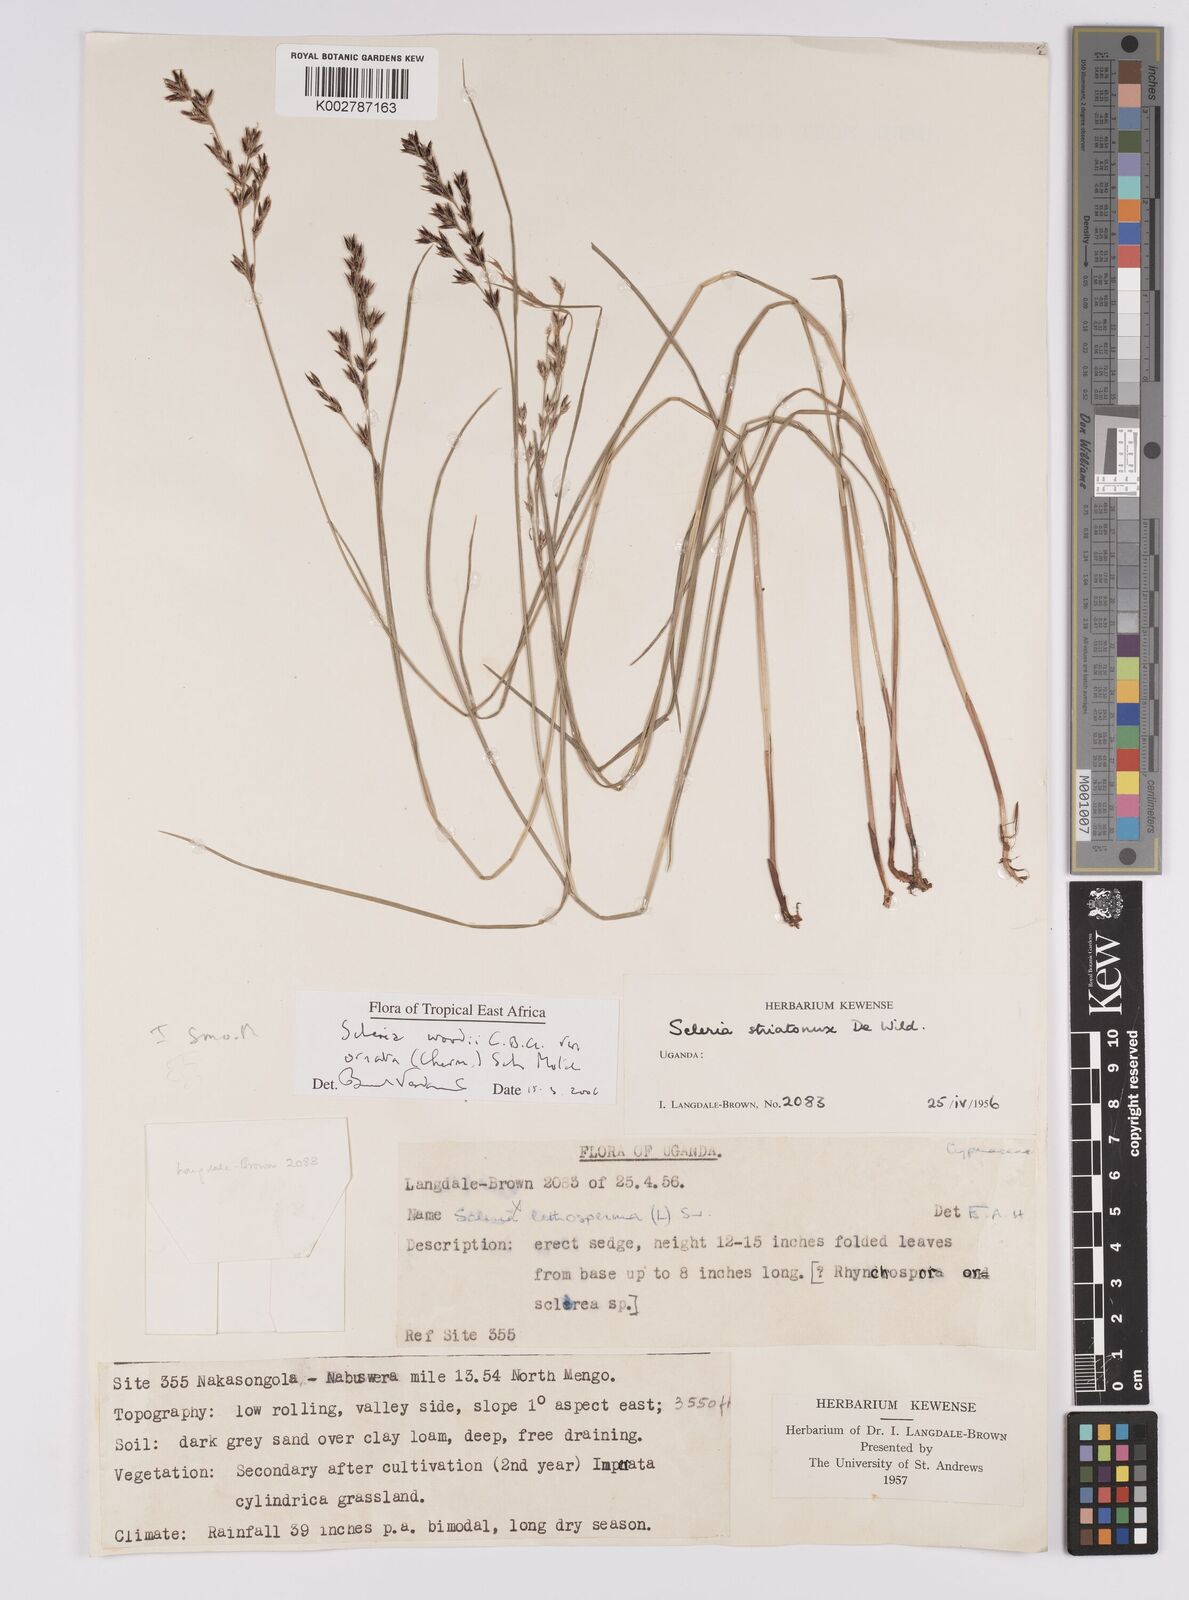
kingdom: Plantae
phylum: Tracheophyta
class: Liliopsida
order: Poales
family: Cyperaceae
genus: Scleria
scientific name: Scleria woodii
